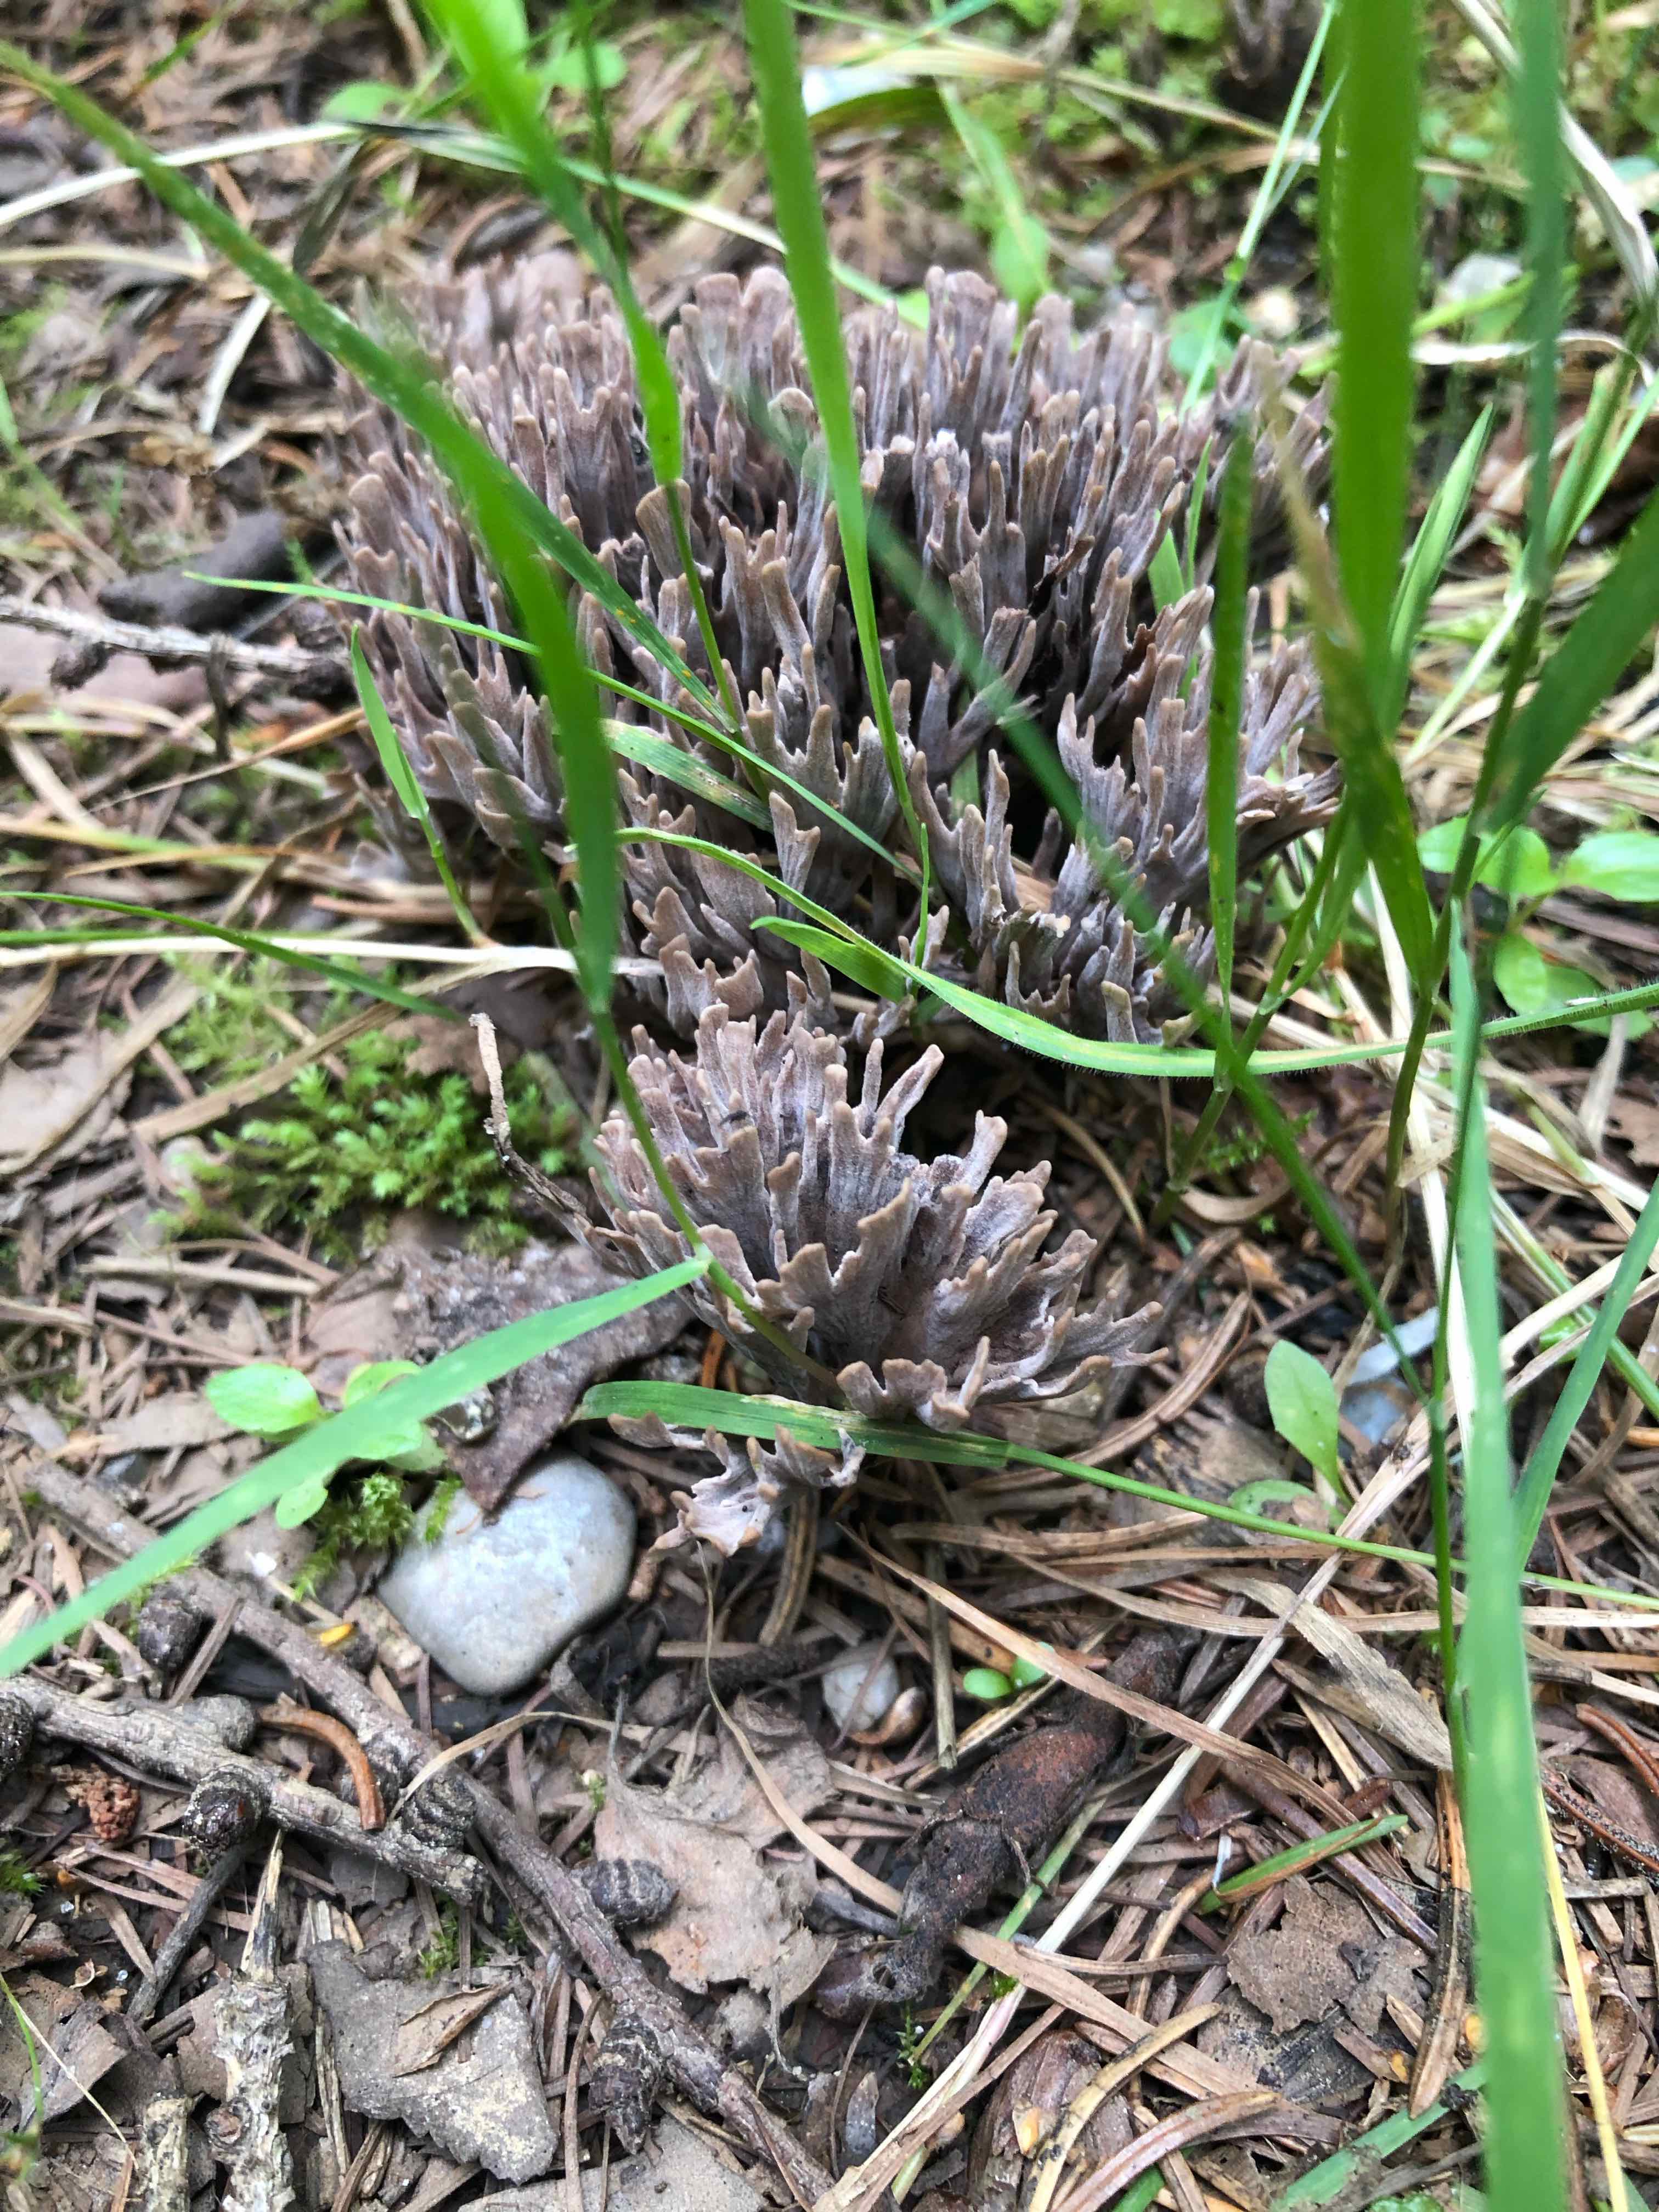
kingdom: Fungi
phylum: Basidiomycota
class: Agaricomycetes
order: Thelephorales
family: Thelephoraceae
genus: Thelephora
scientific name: Thelephora palmata
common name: grenet frynsesvamp
